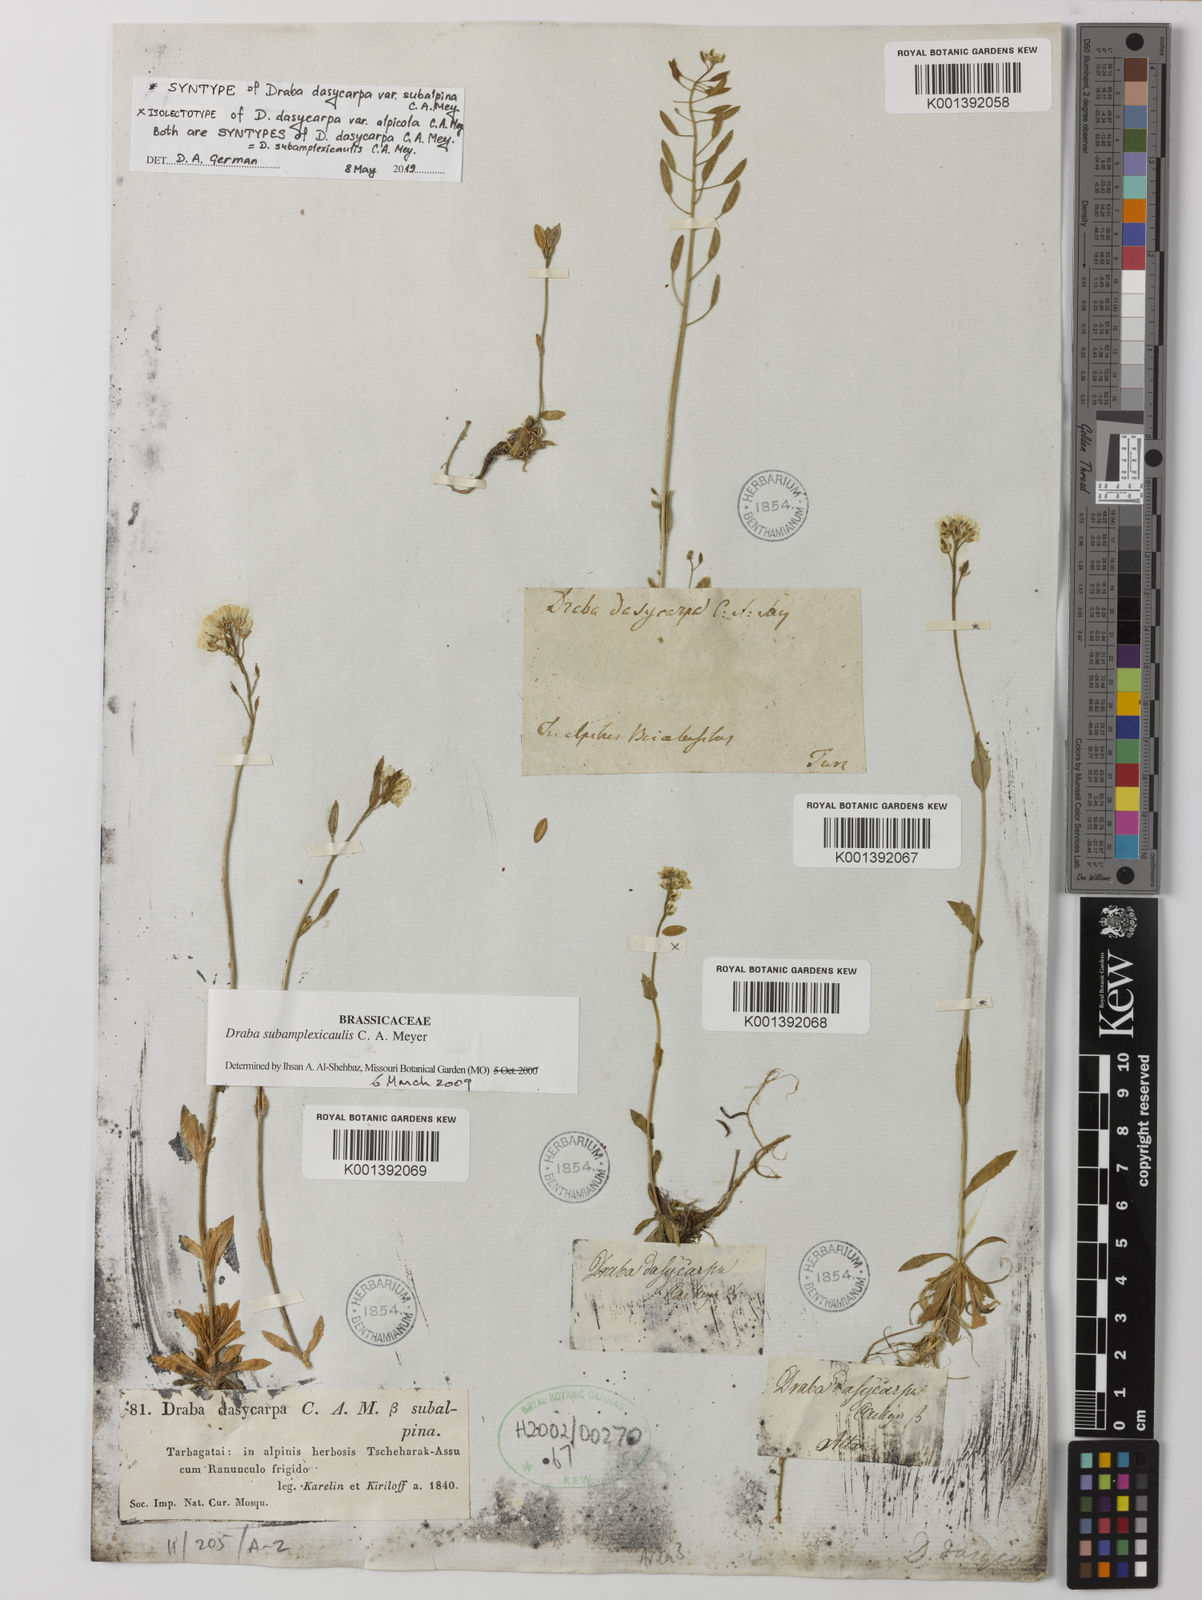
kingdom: Plantae
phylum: Tracheophyta
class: Magnoliopsida
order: Brassicales
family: Brassicaceae
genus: Draba
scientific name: Draba
